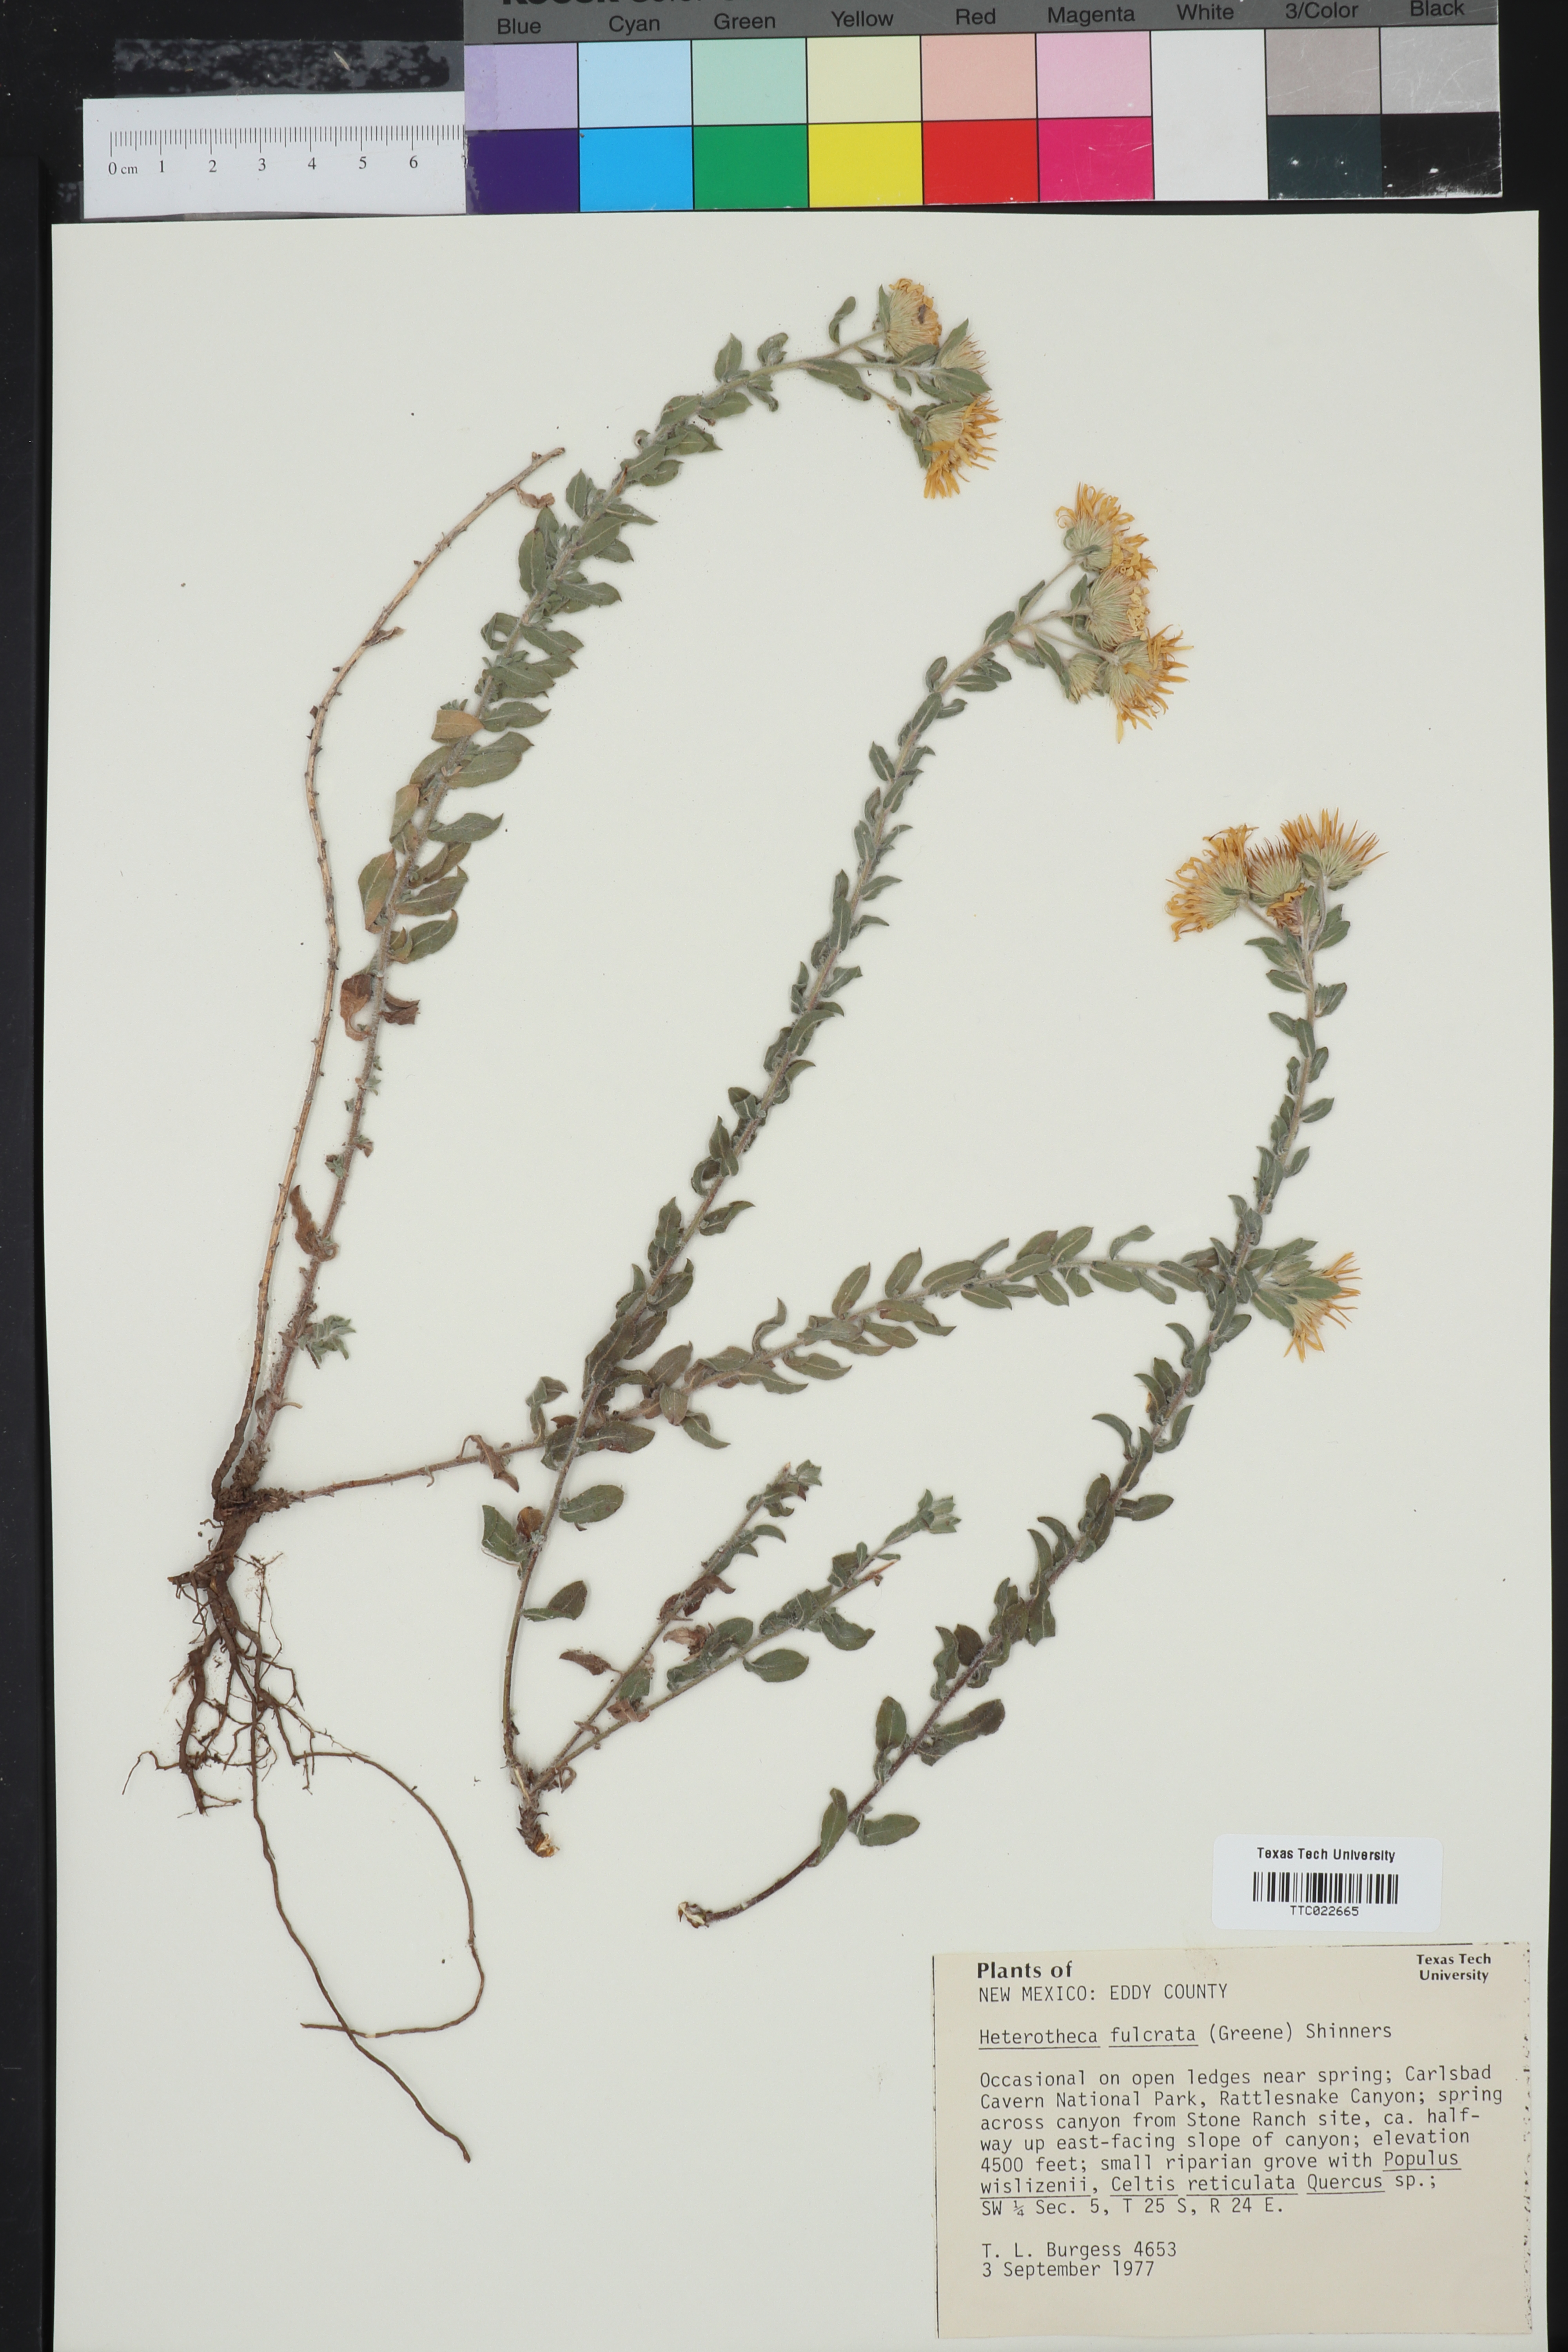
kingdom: Plantae
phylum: Tracheophyta
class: Magnoliopsida
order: Asterales
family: Asteraceae
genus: Heterotheca
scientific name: Heterotheca fulcrata
